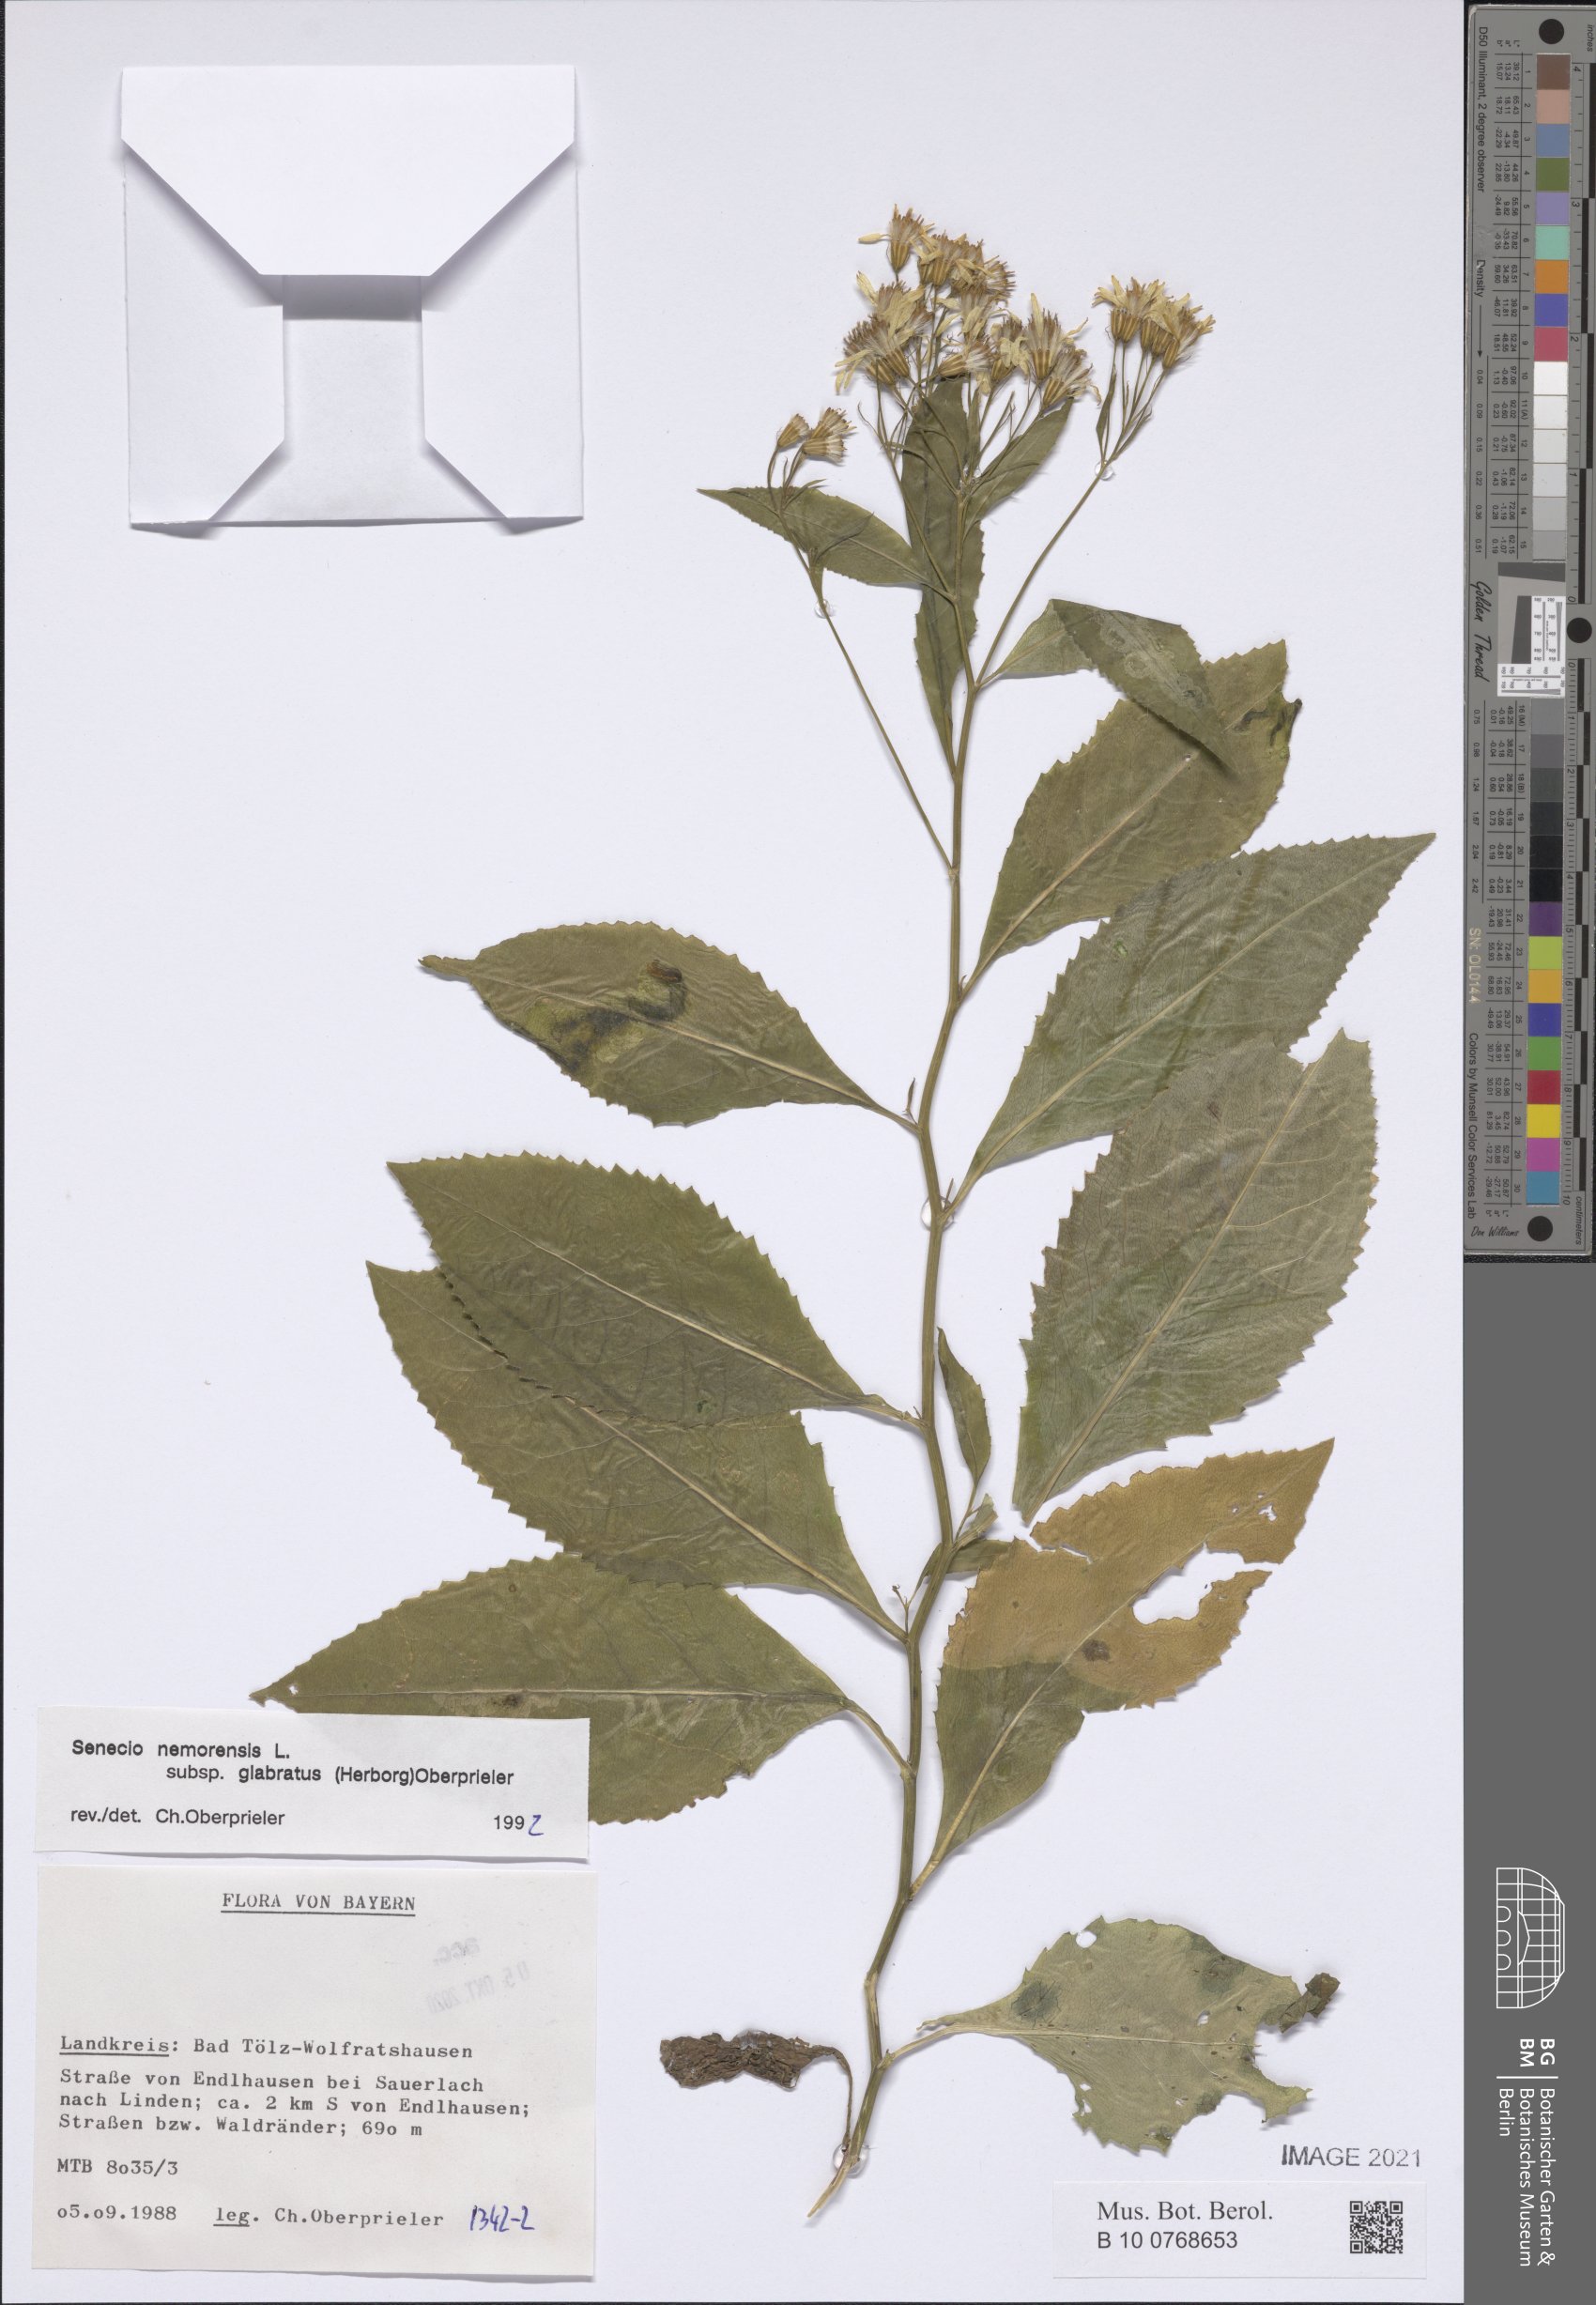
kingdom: Plantae
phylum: Tracheophyta
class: Magnoliopsida
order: Asterales
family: Asteraceae
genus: Senecio
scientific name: Senecio germanicus
